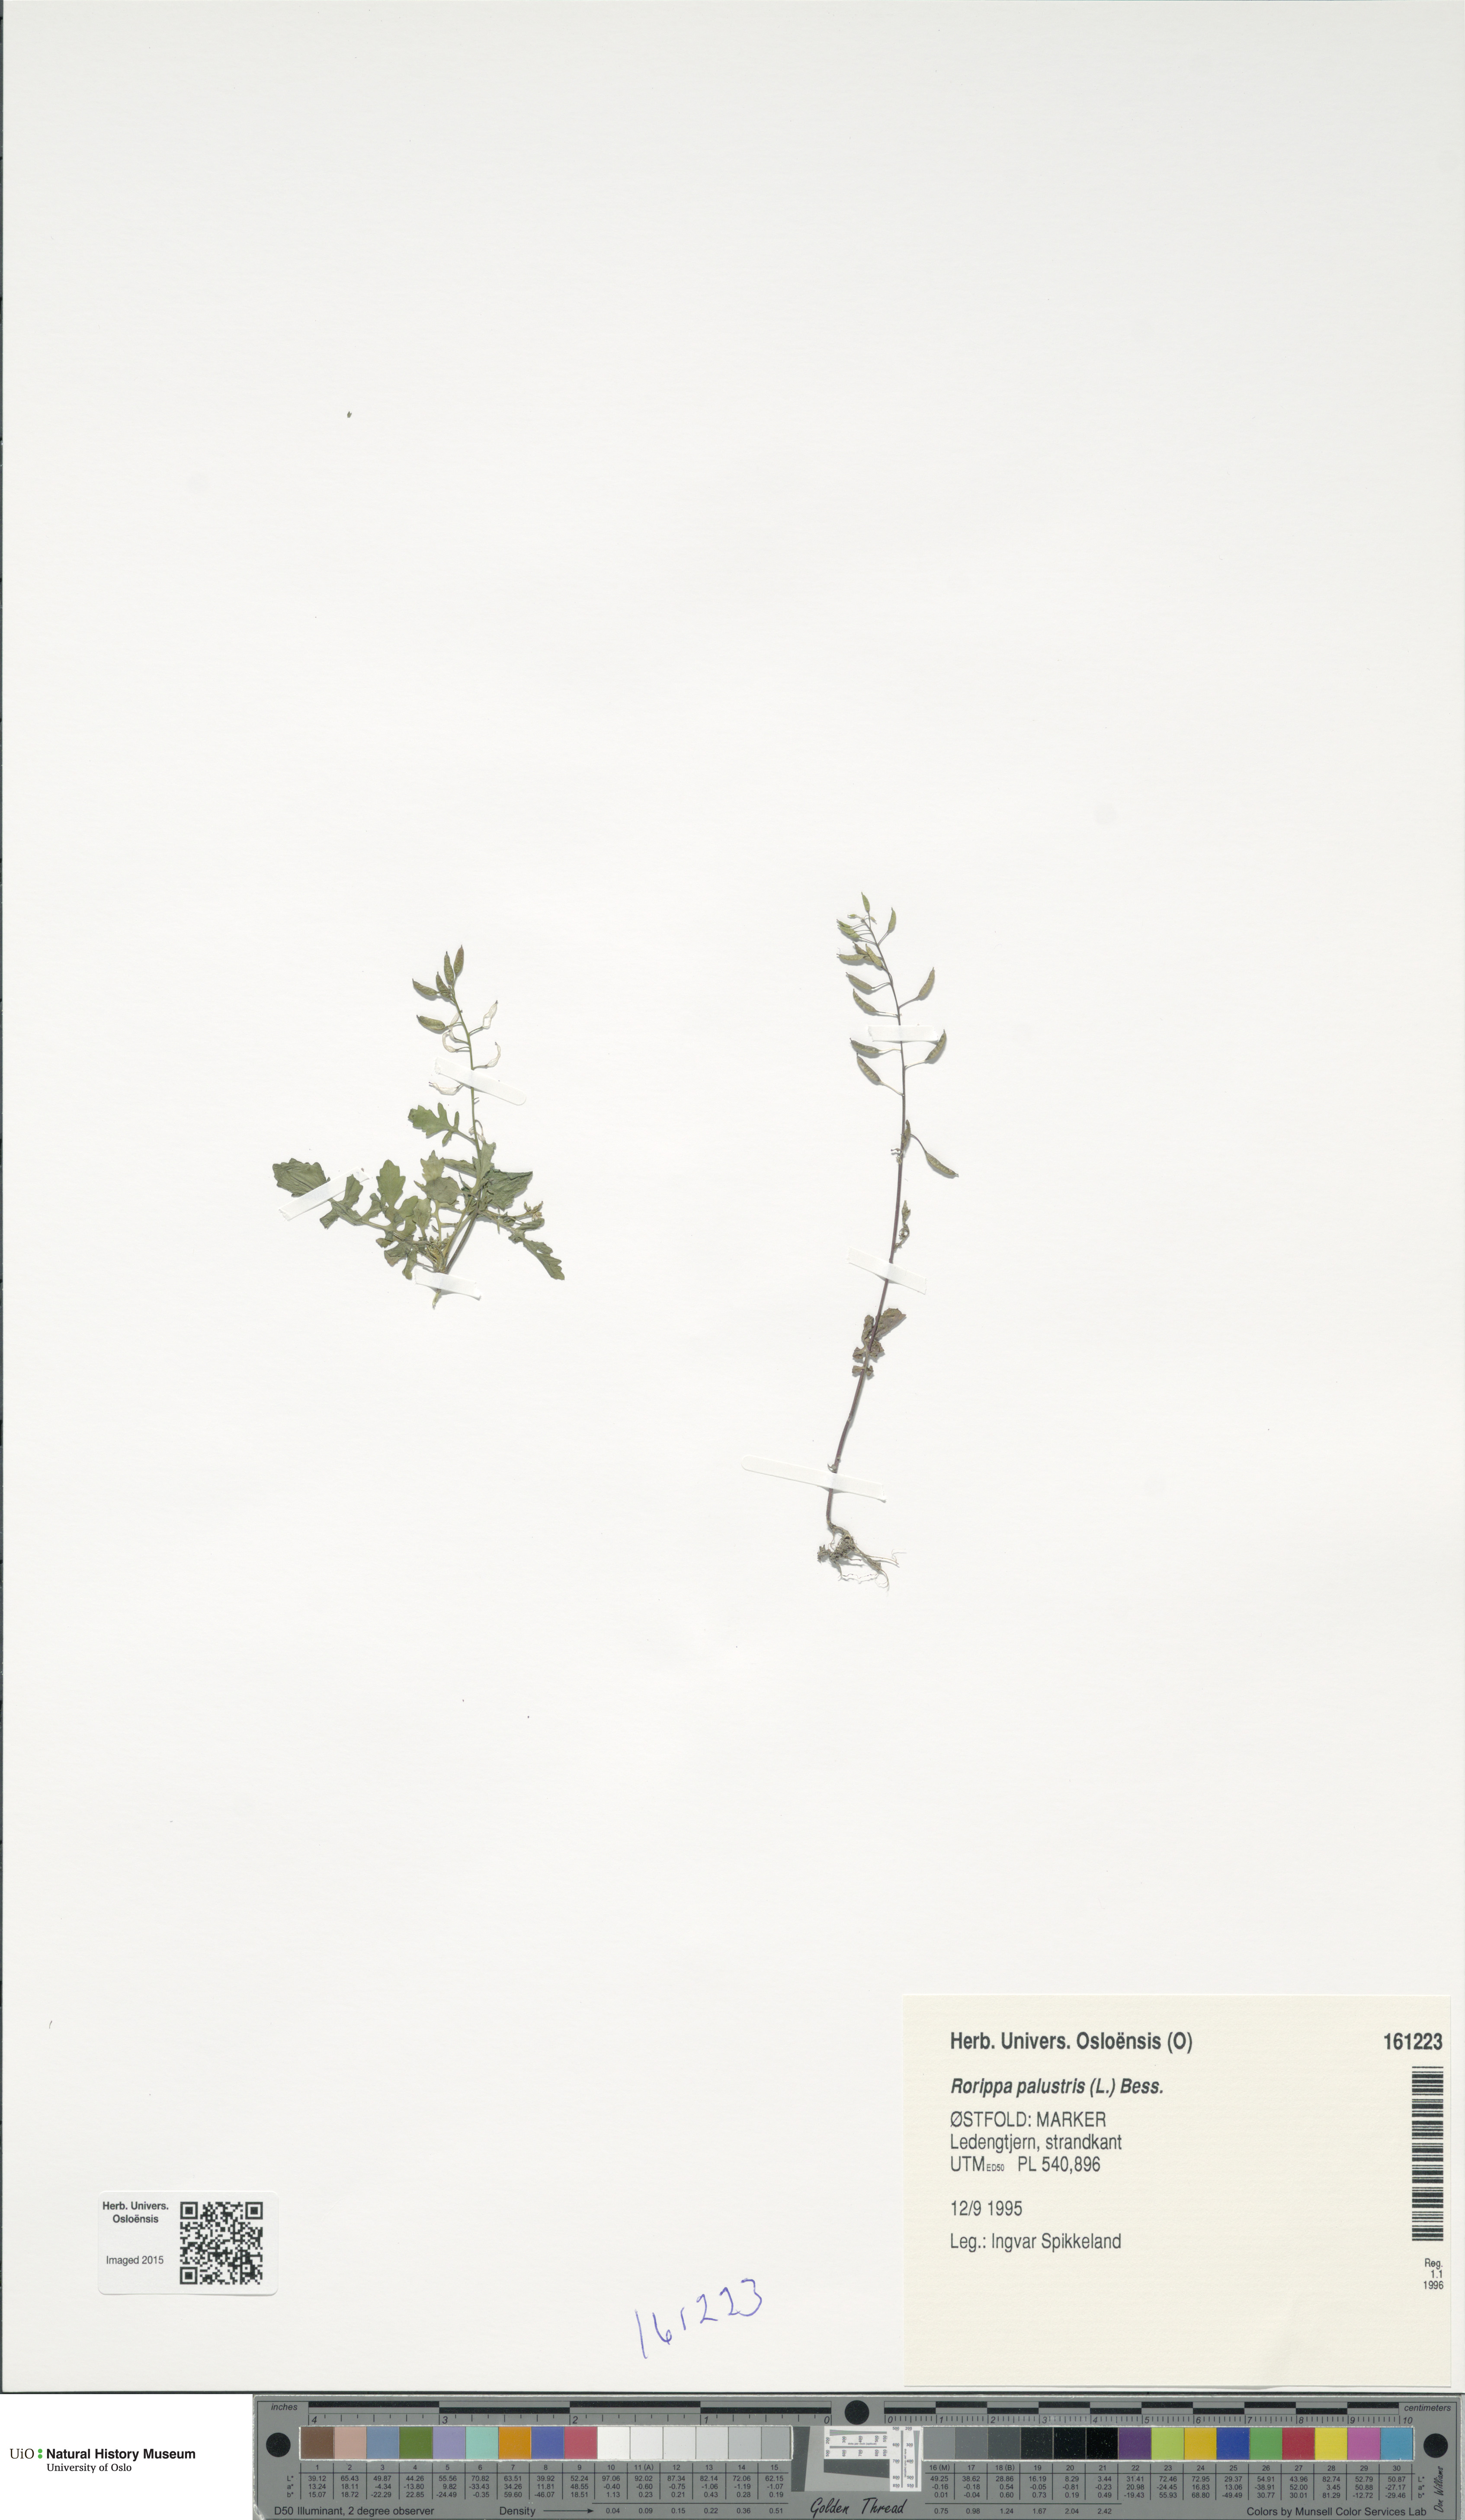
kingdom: Plantae
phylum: Tracheophyta
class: Magnoliopsida
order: Brassicales
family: Brassicaceae
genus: Rorippa
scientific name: Rorippa palustris
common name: Marsh yellow-cress
